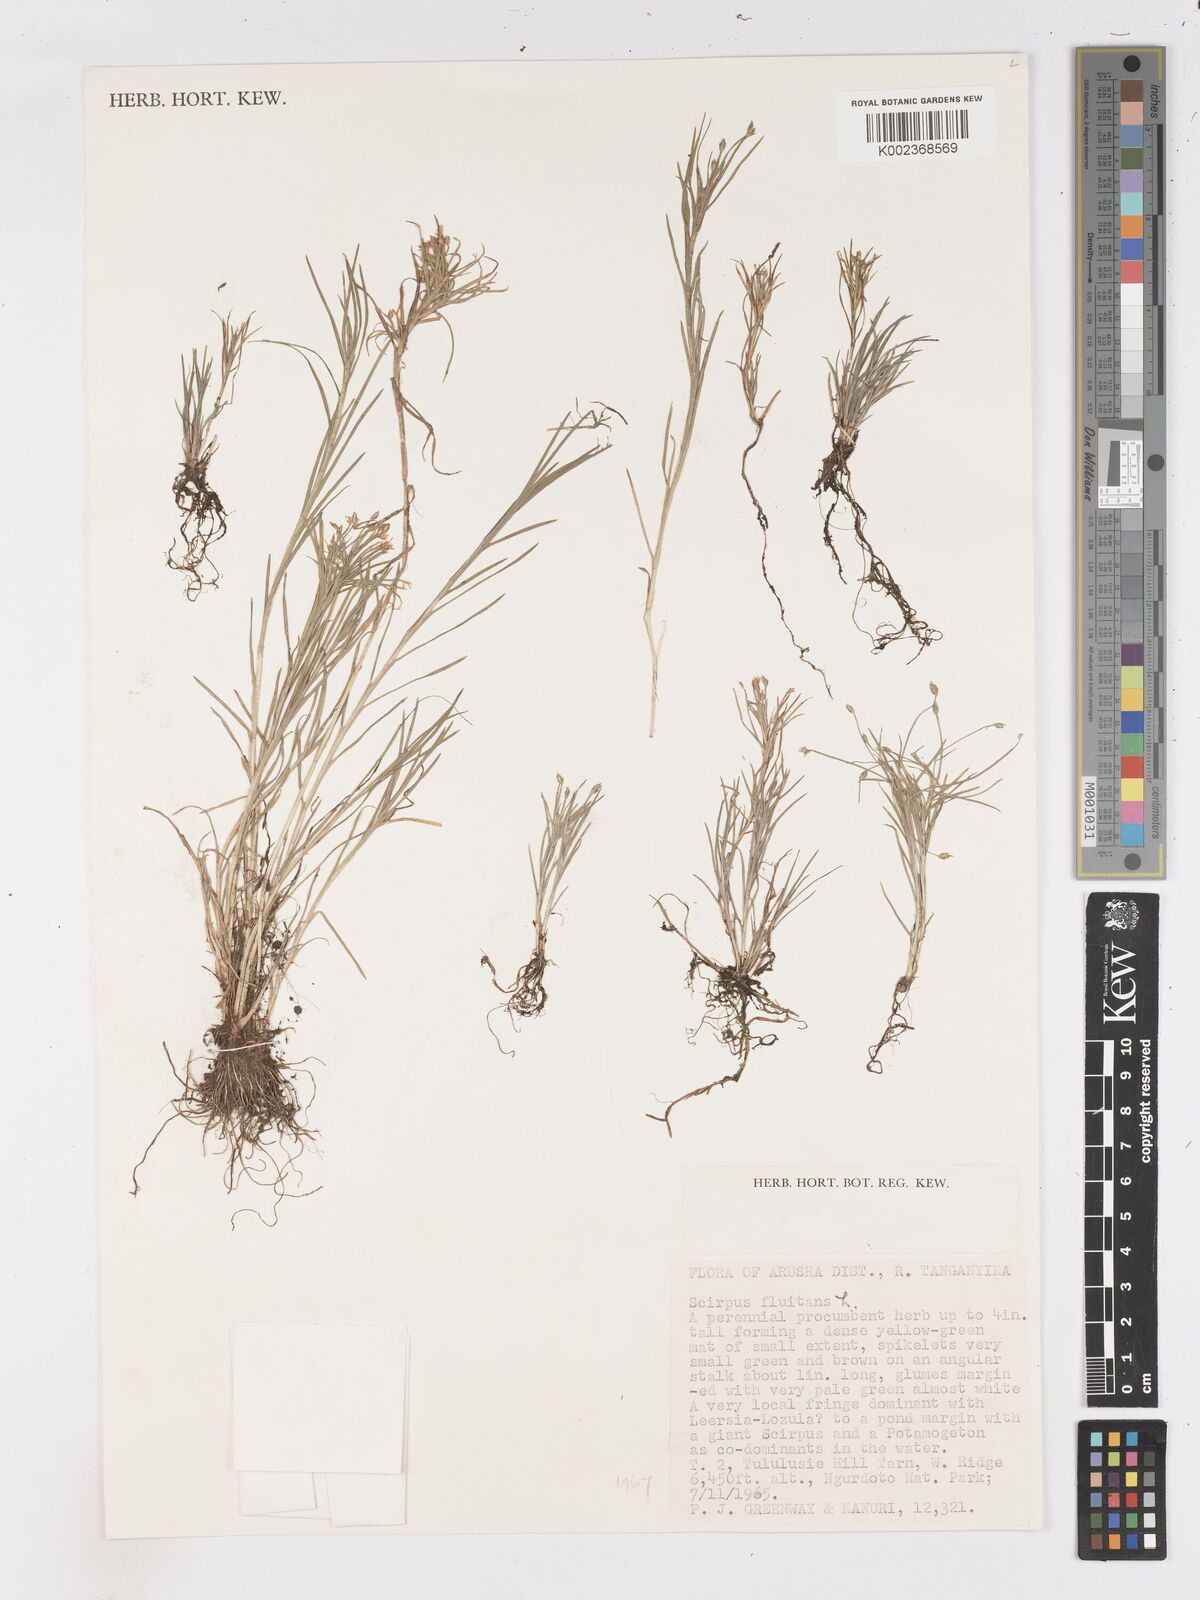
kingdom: Plantae
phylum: Tracheophyta
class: Liliopsida
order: Poales
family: Cyperaceae
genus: Isolepis
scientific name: Isolepis fluitans
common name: Floating club-rush
